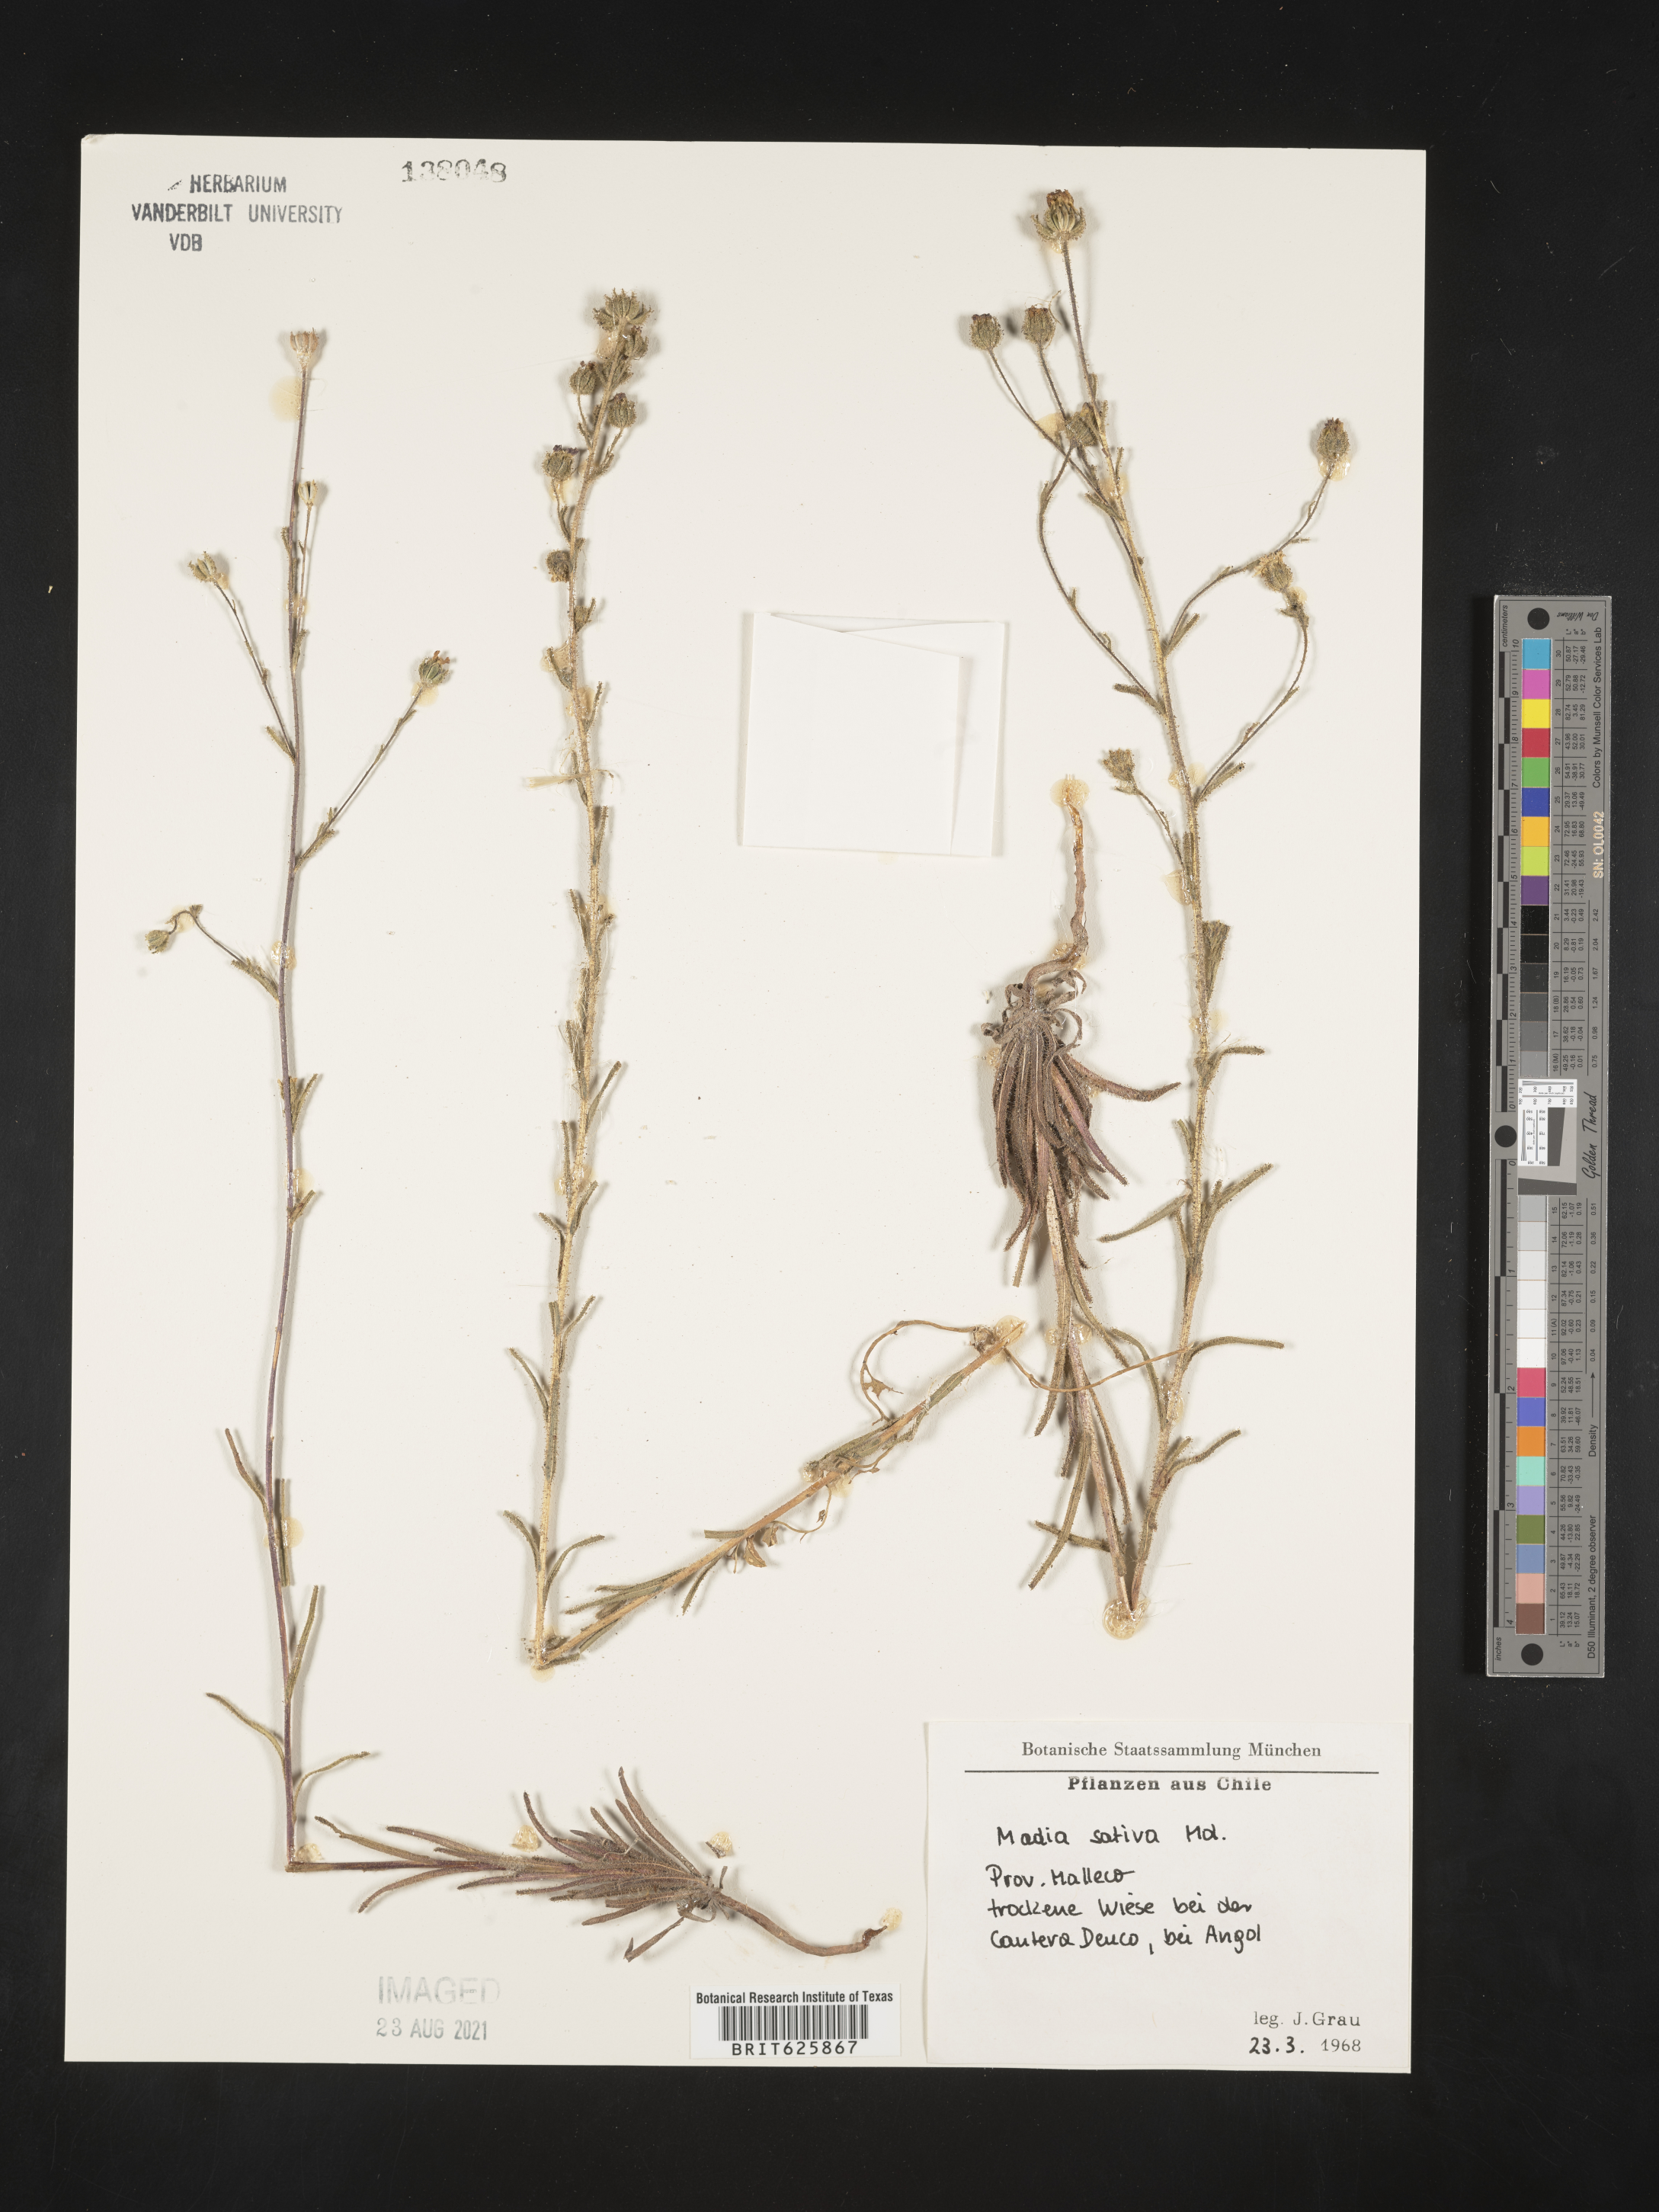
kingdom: Plantae
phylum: Tracheophyta
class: Magnoliopsida
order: Asterales
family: Asteraceae
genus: Madia
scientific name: Madia sativa
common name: Coast tarweed
